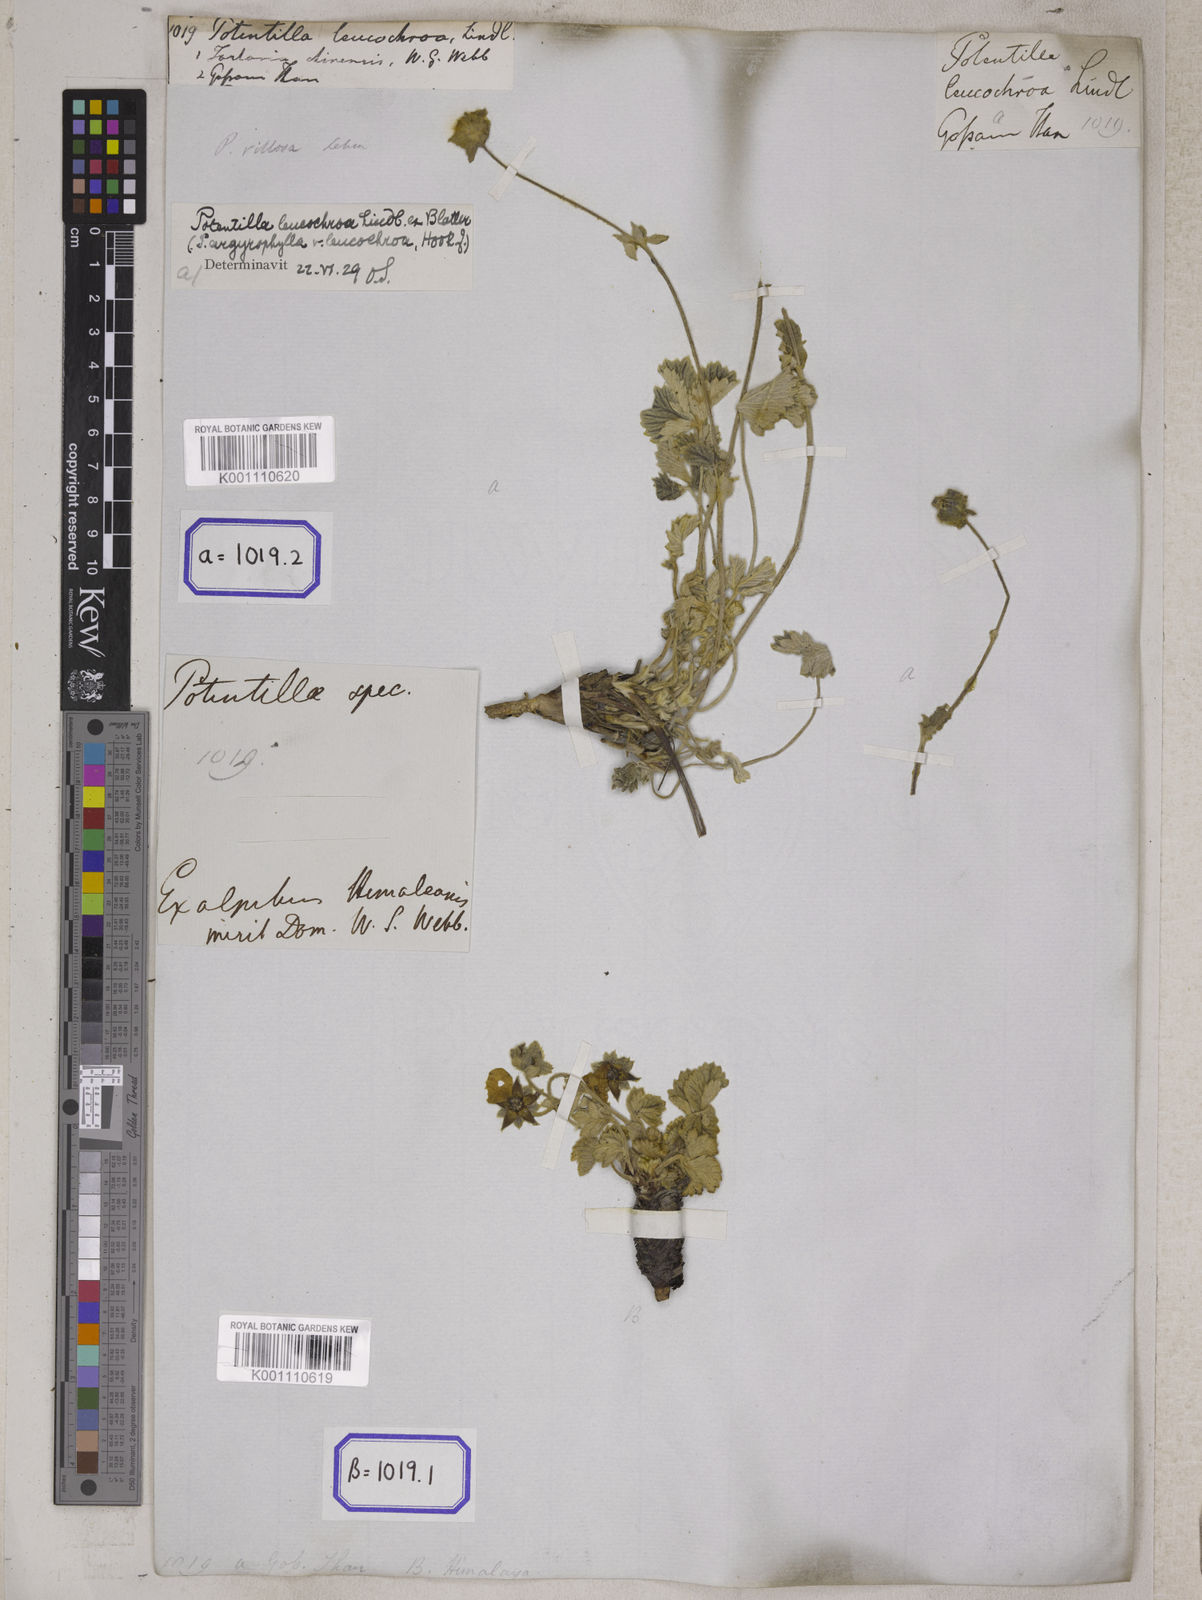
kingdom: Plantae
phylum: Tracheophyta
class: Magnoliopsida
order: Rosales
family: Rosaceae
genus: Potentilla
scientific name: Potentilla
